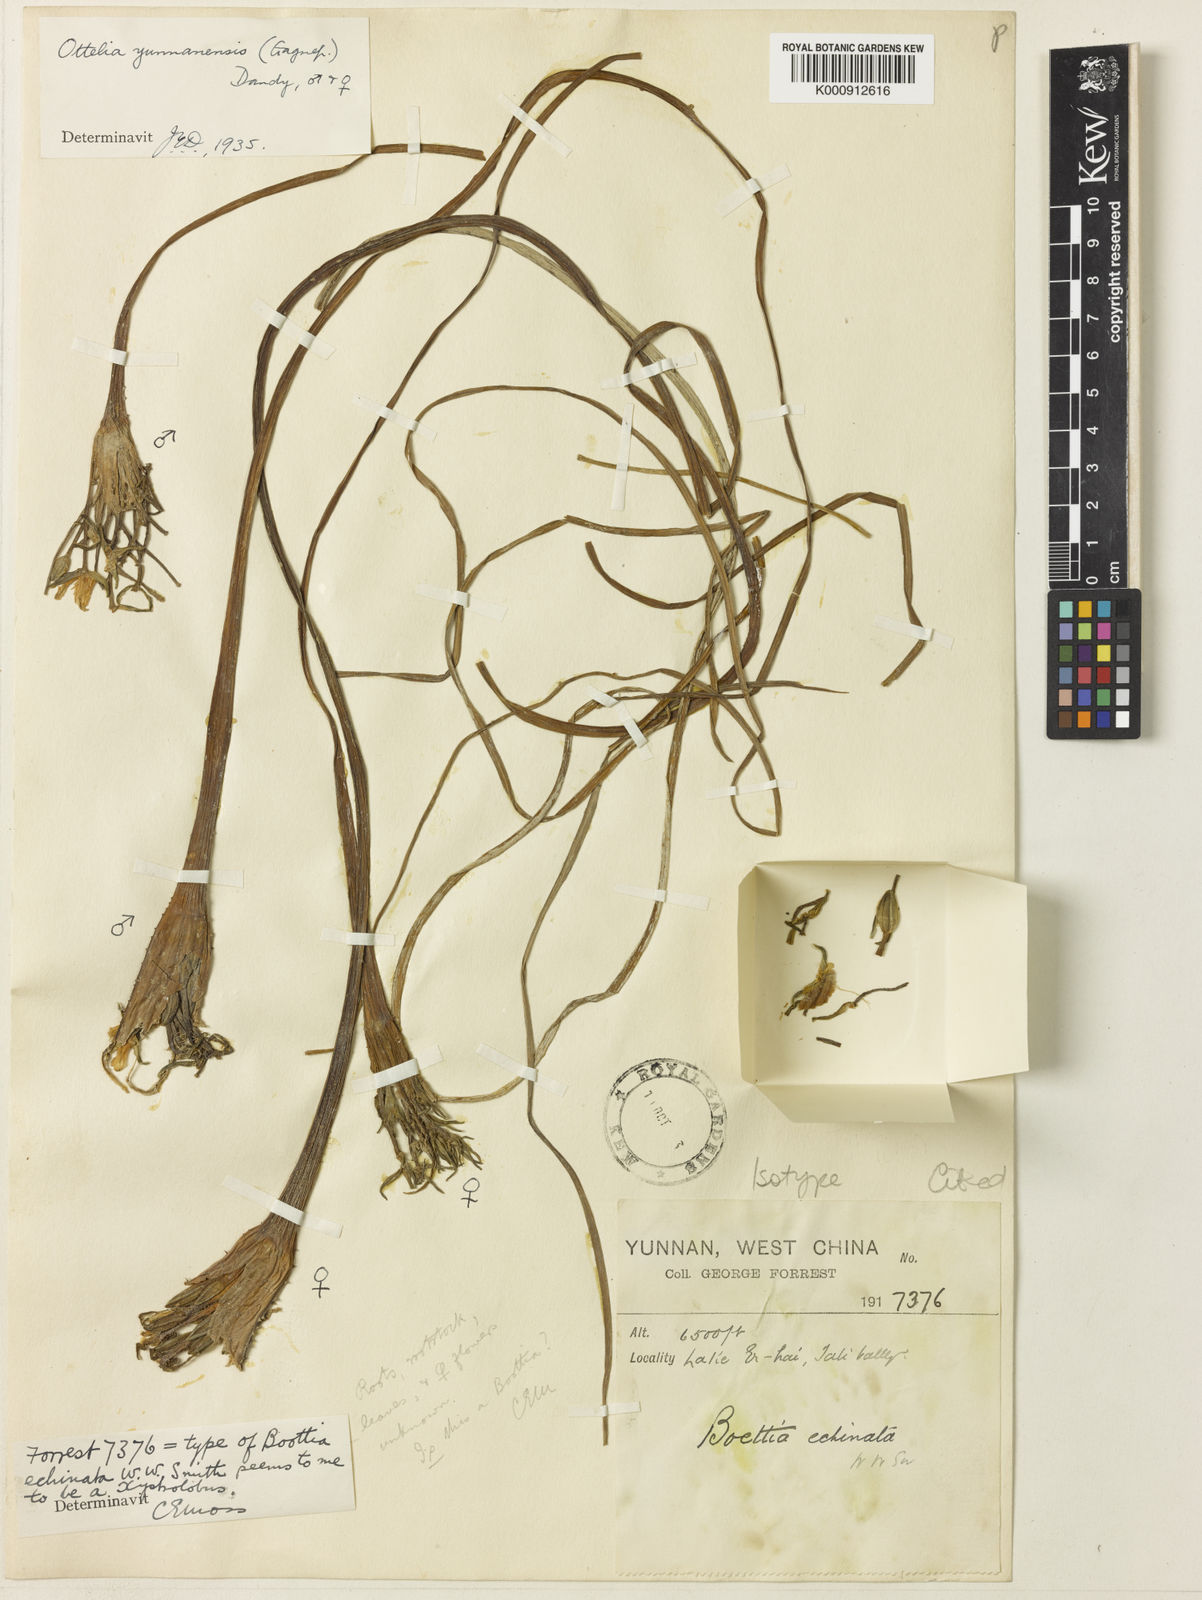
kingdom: Plantae
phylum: Tracheophyta
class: Liliopsida
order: Alismatales
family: Hydrocharitaceae
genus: Ottelia
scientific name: Ottelia acuminata
